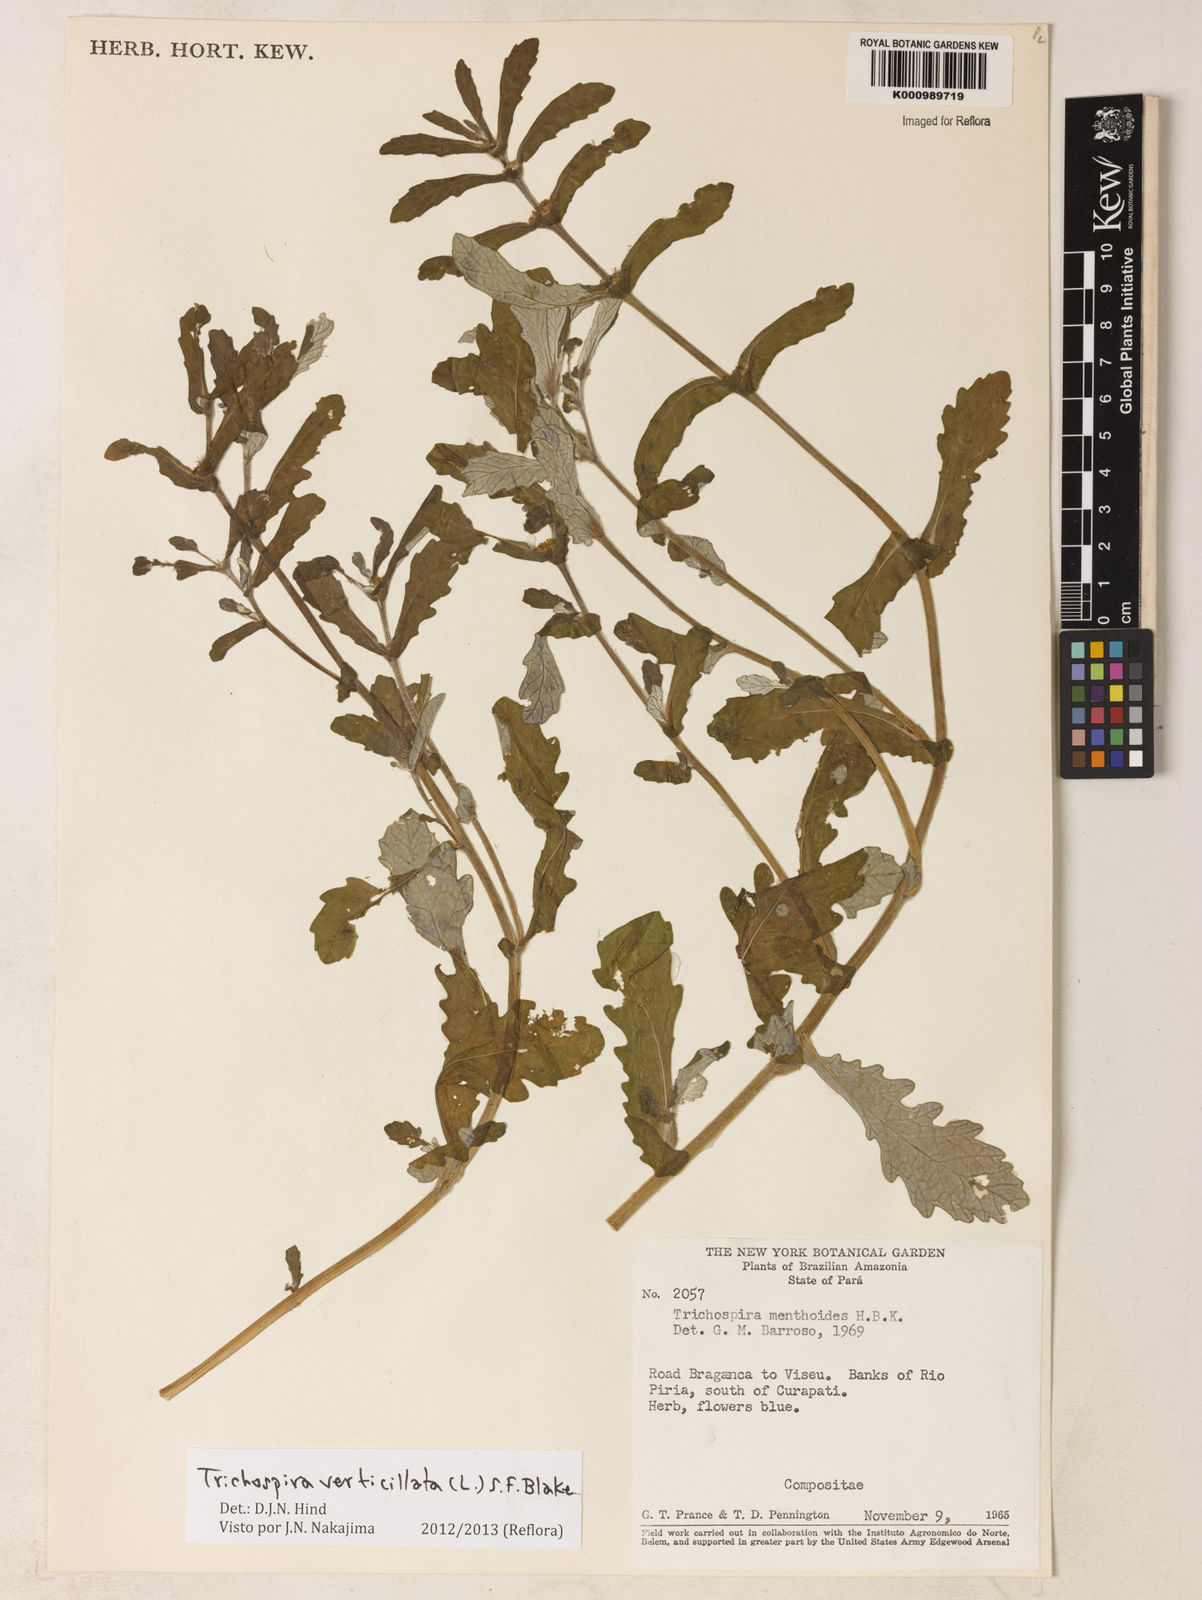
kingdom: Chromista
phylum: Ciliophora
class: Kinetofragminophora
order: Trichostomatida
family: Trichospiridae
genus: Trichospira
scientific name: Trichospira verticillata
